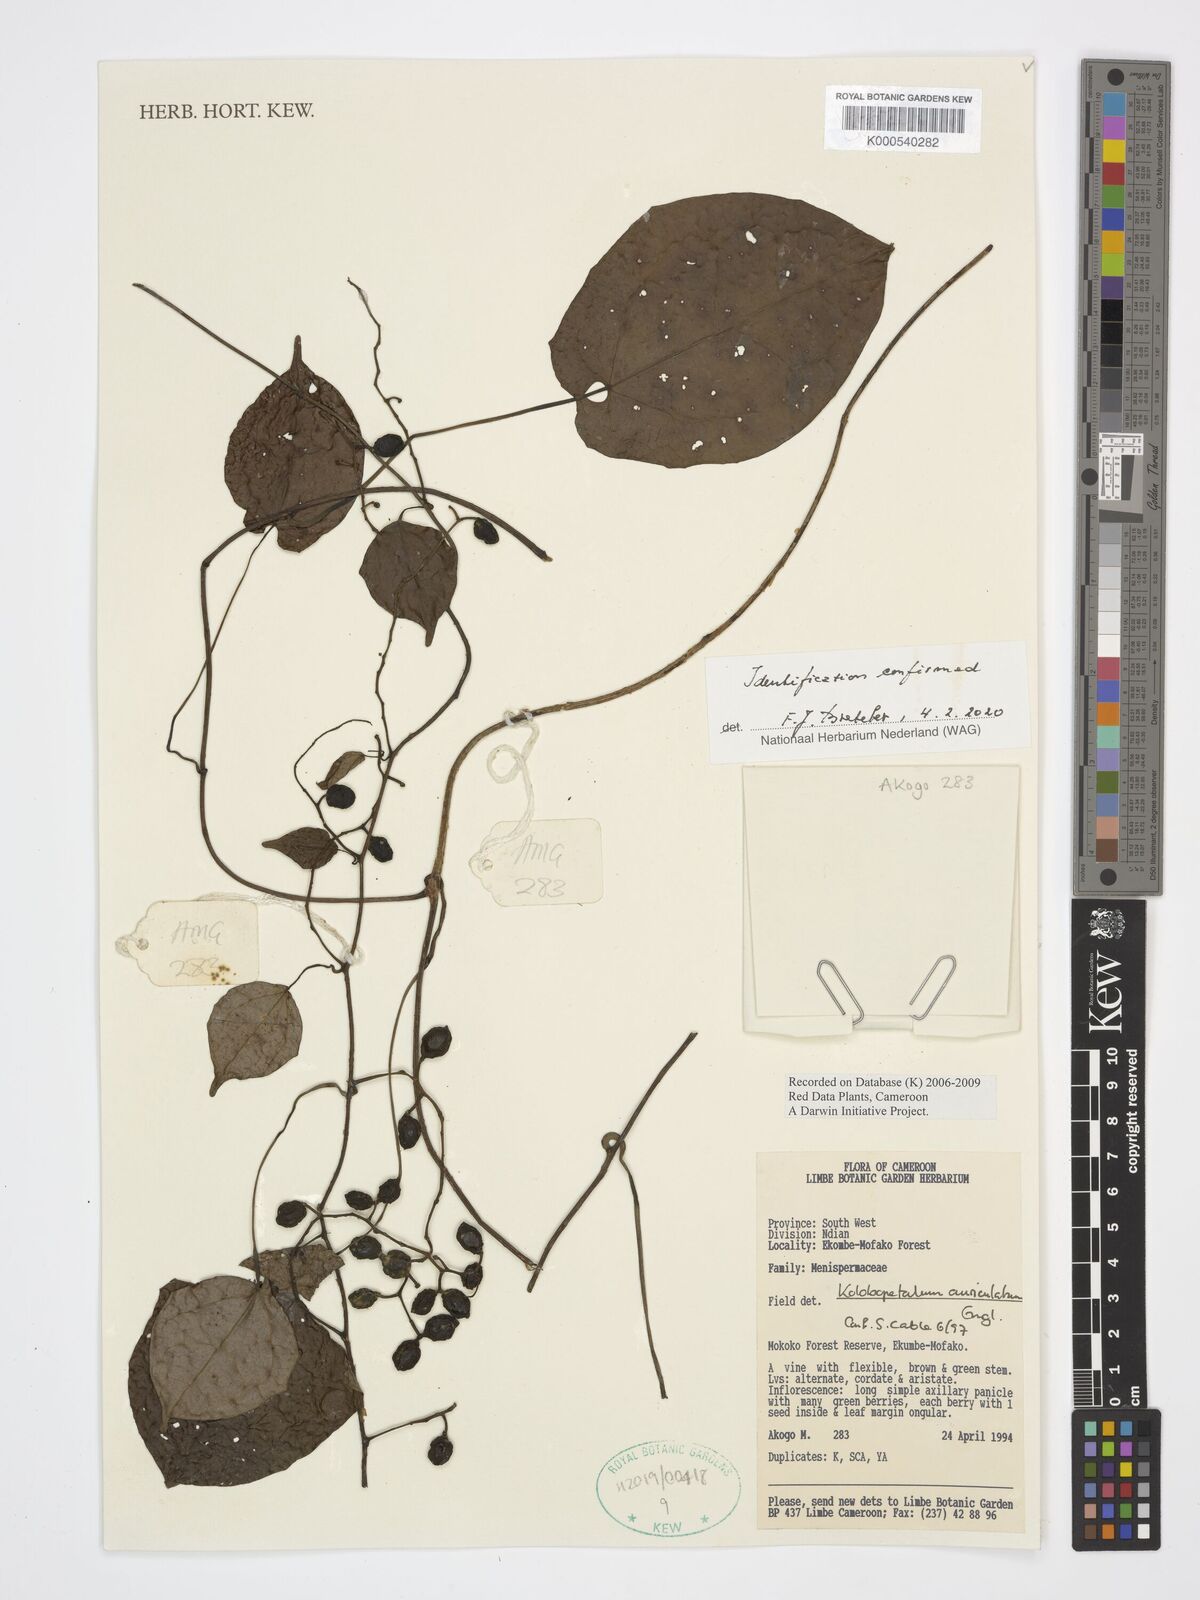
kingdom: Plantae
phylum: Tracheophyta
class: Magnoliopsida
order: Ranunculales
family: Menispermaceae
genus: Kolobopetalum
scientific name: Kolobopetalum auriculatum
